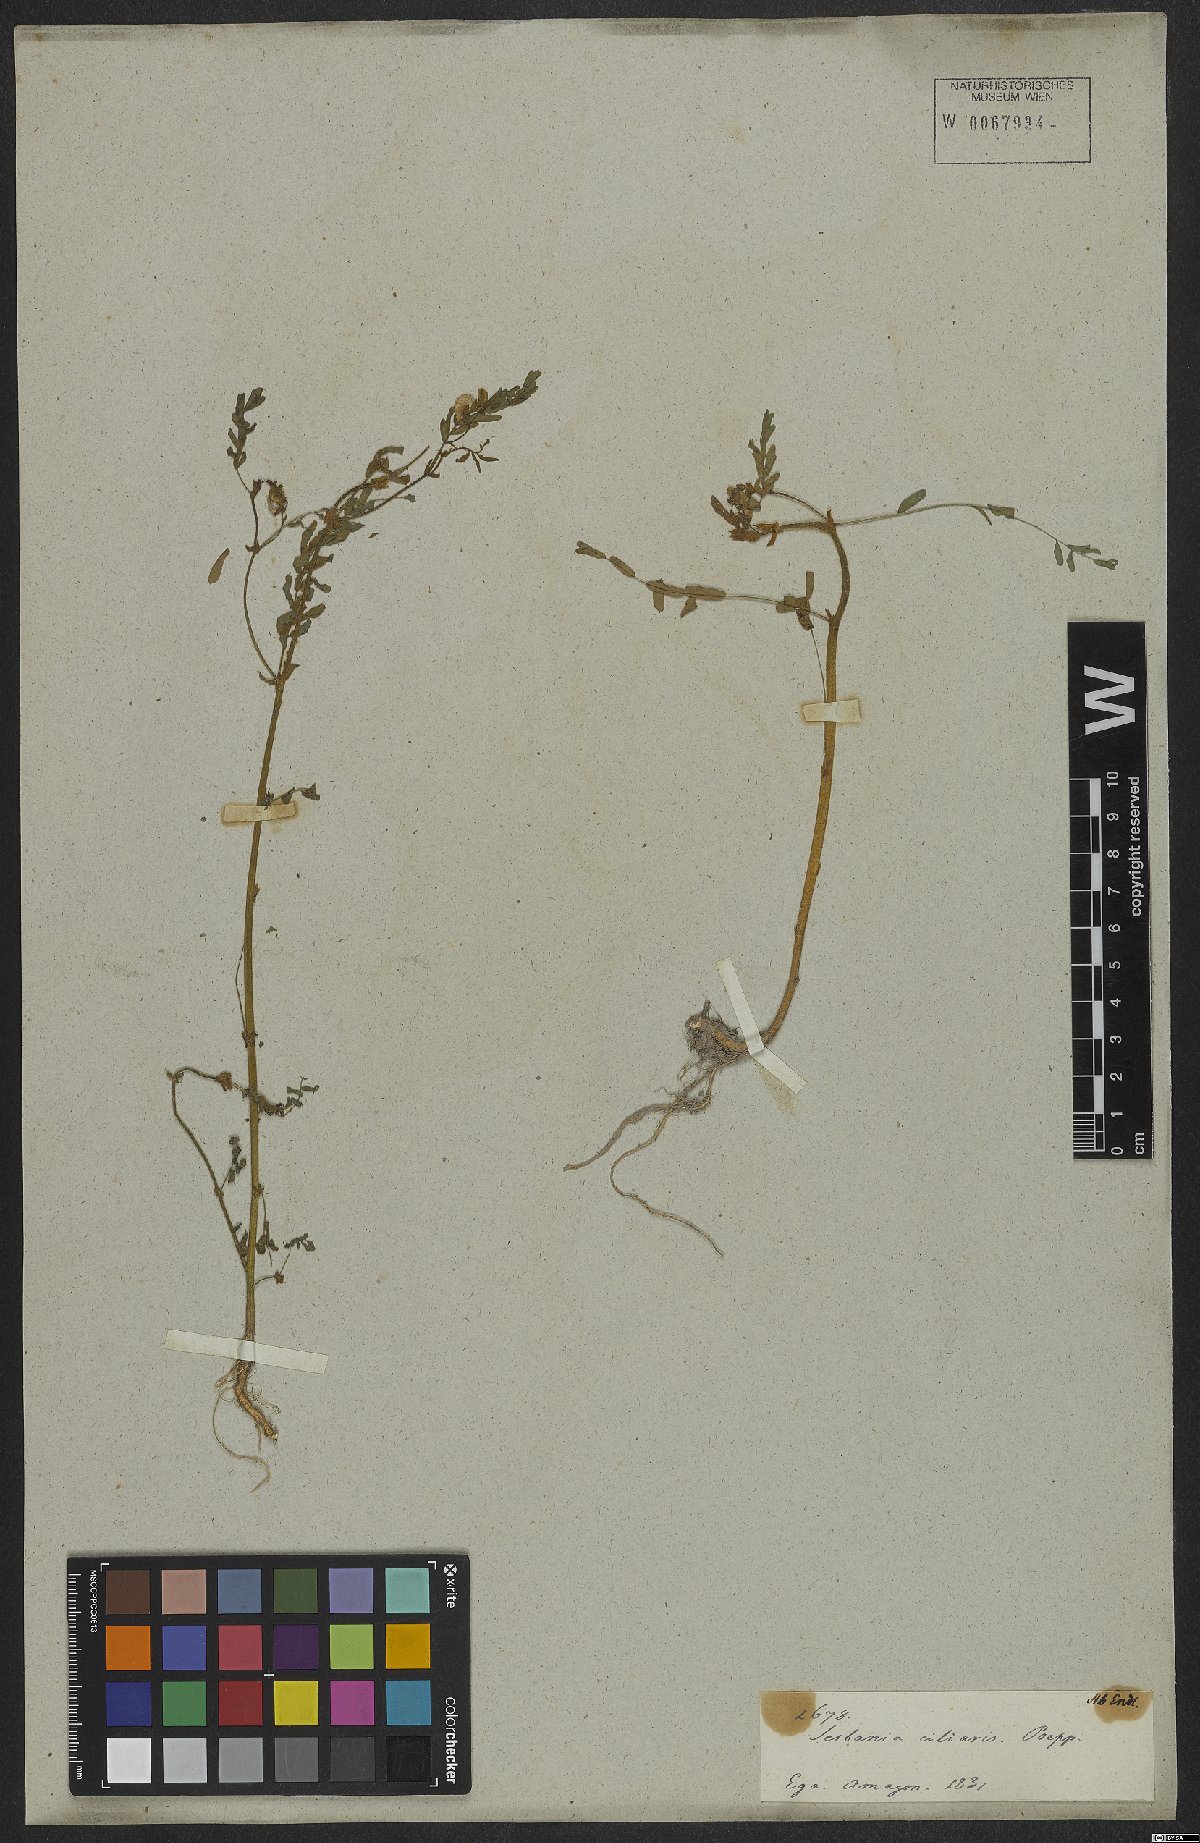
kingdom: Plantae
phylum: Tracheophyta
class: Magnoliopsida
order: Fabales
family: Fabaceae
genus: Sesbania
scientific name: Sesbania
